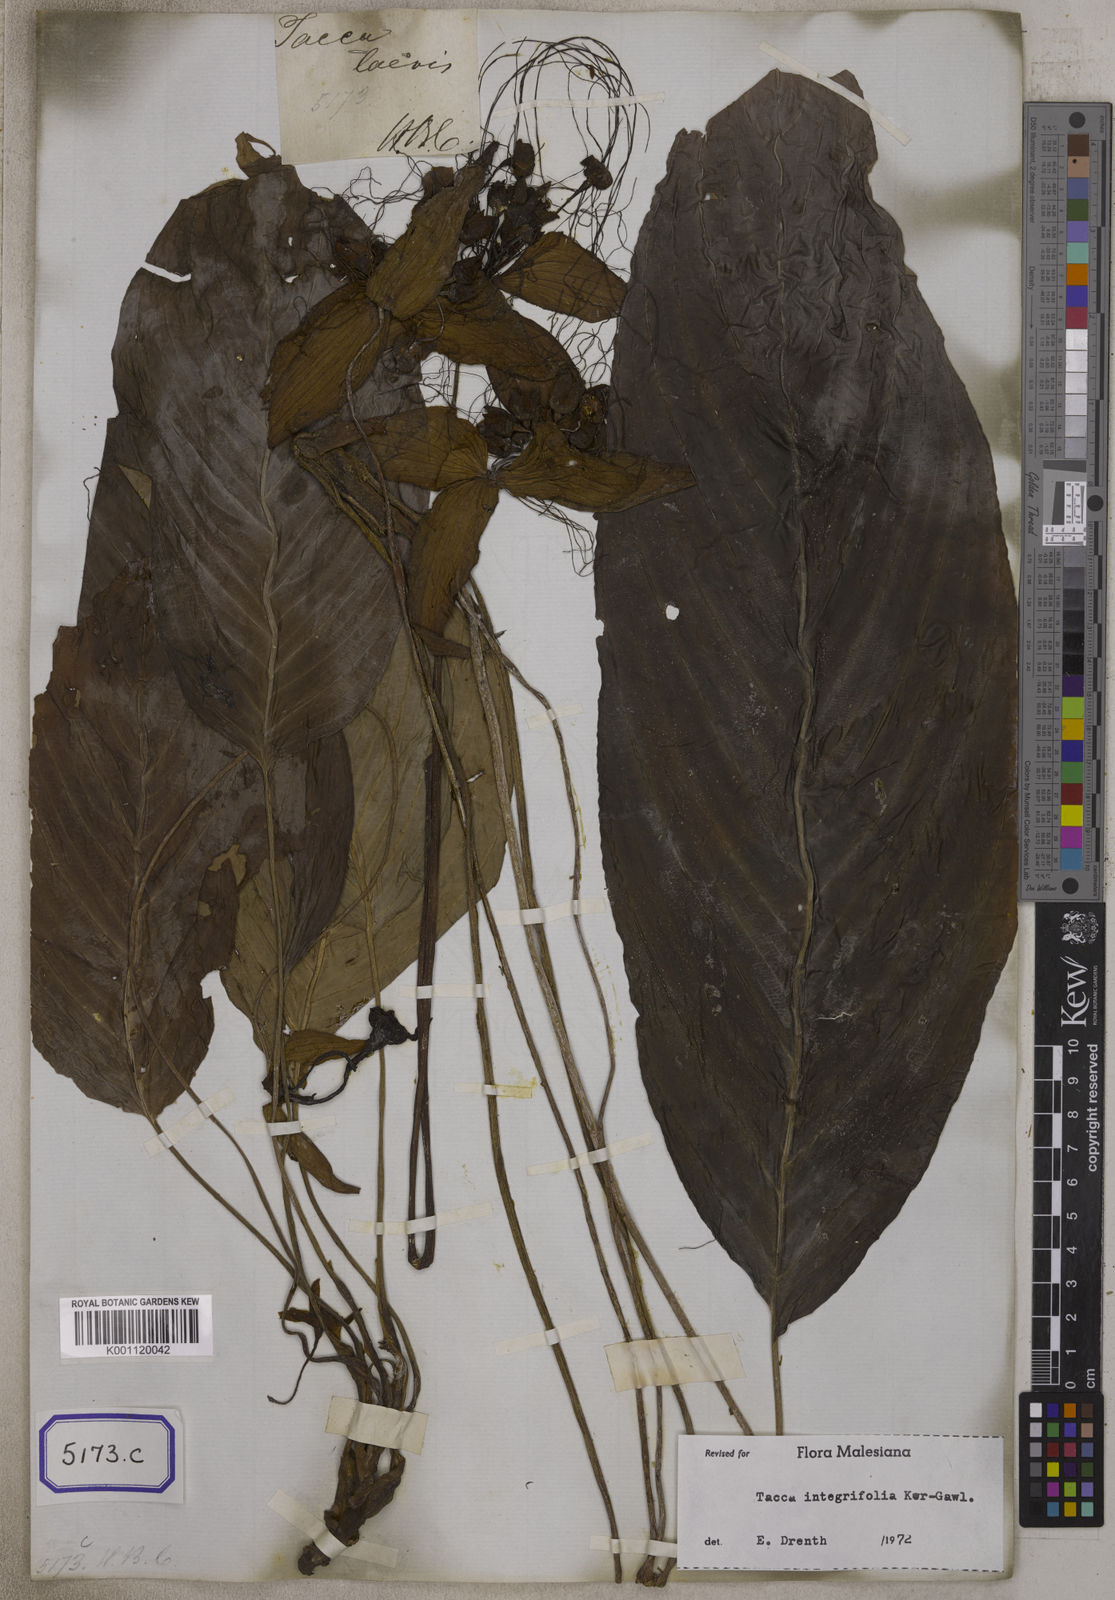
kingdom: Plantae
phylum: Tracheophyta
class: Liliopsida
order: Dioscoreales
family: Dioscoreaceae
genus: Tacca
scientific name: Tacca integrifolia
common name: Batplant
